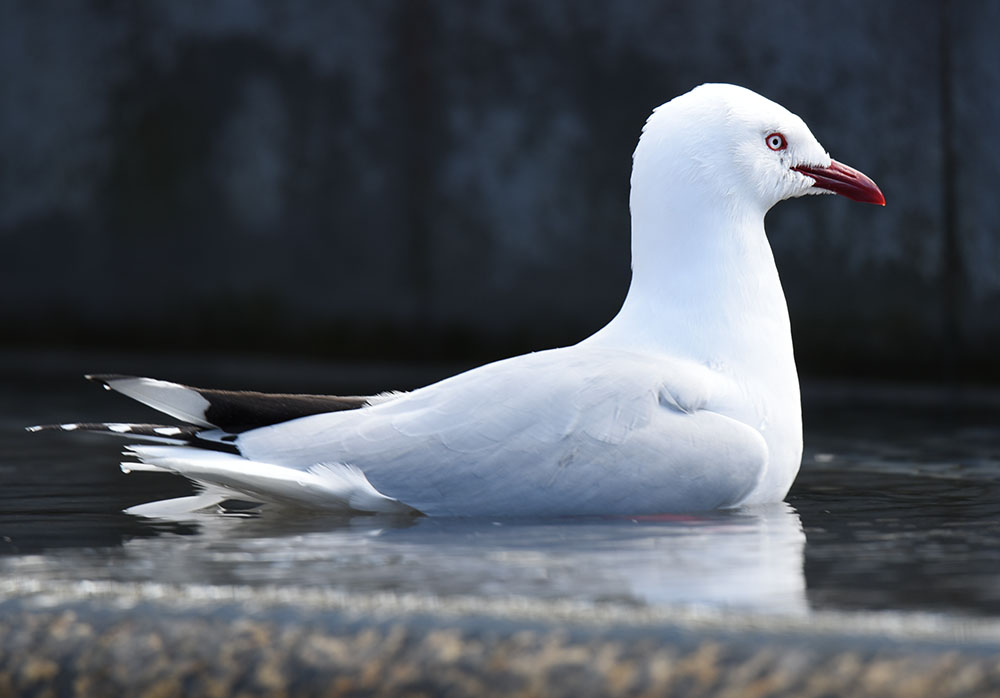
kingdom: Animalia
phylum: Chordata
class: Aves
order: Charadriiformes
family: Laridae
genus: Chroicocephalus
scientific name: Chroicocephalus novaehollandiae
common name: Silver gull
